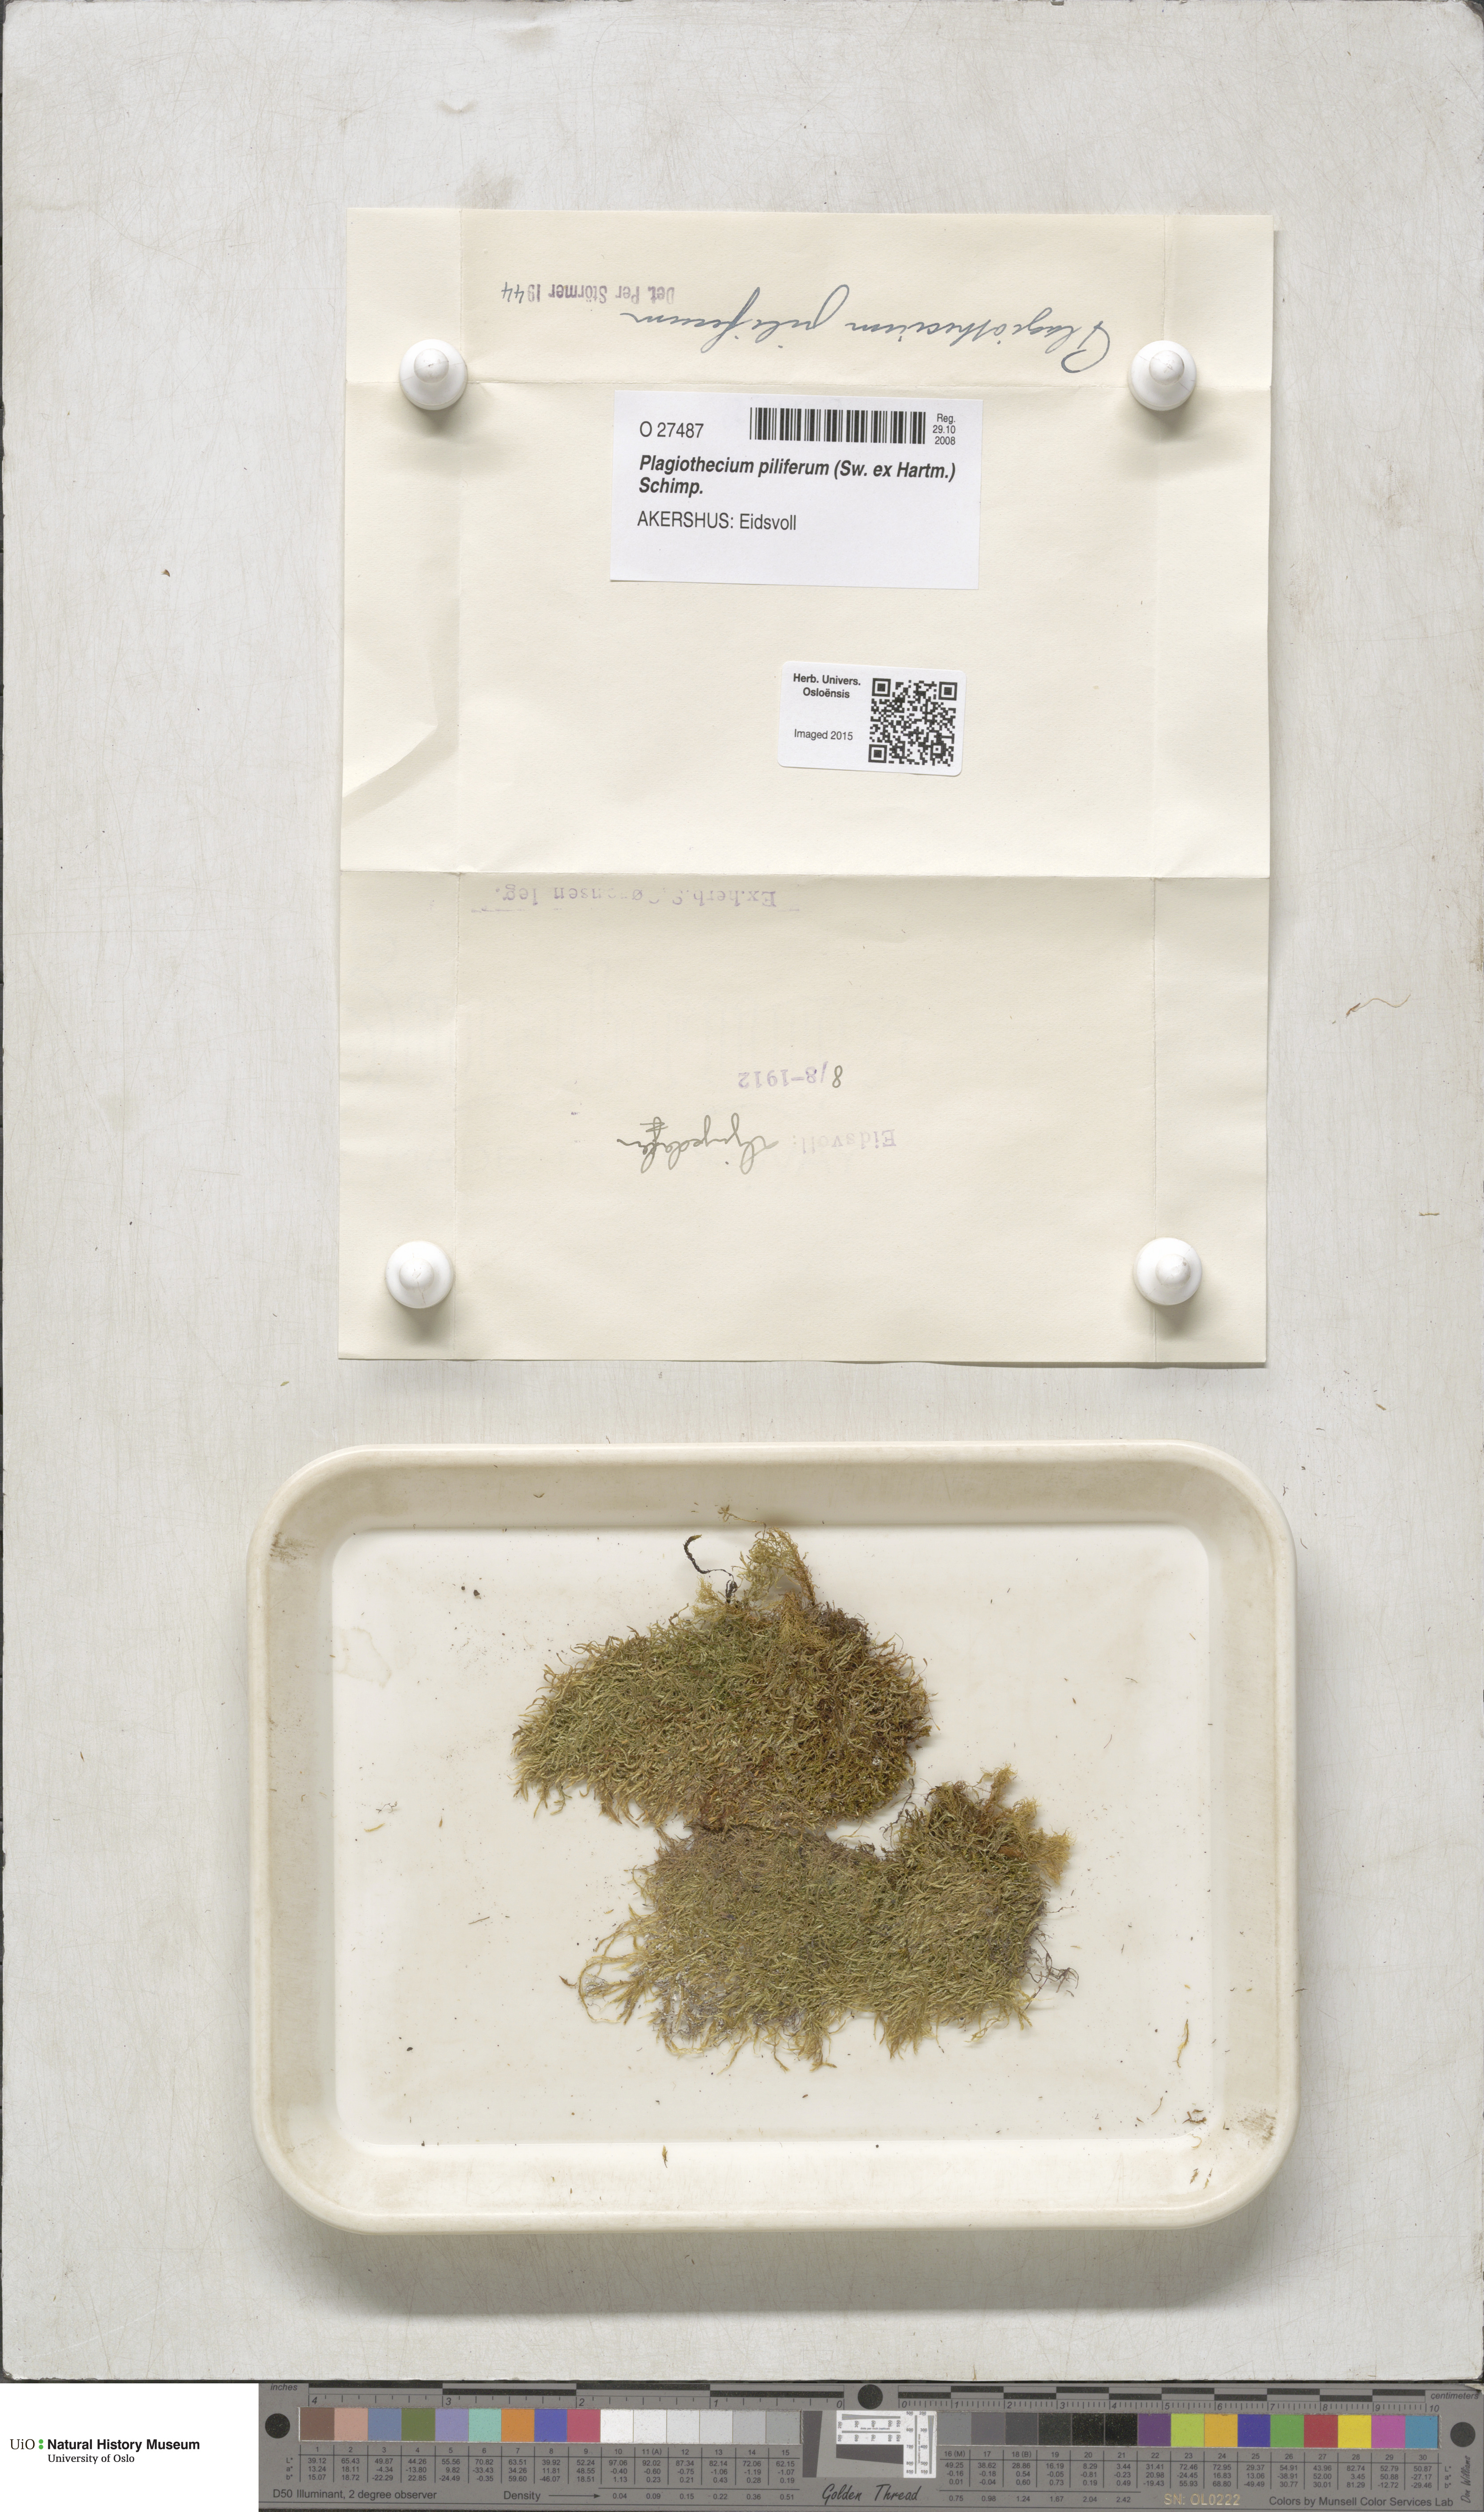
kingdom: Plantae
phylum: Bryophyta
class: Bryopsida
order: Hypnales
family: Plagiotheciaceae
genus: Rectithecium
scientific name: Rectithecium piliferum
